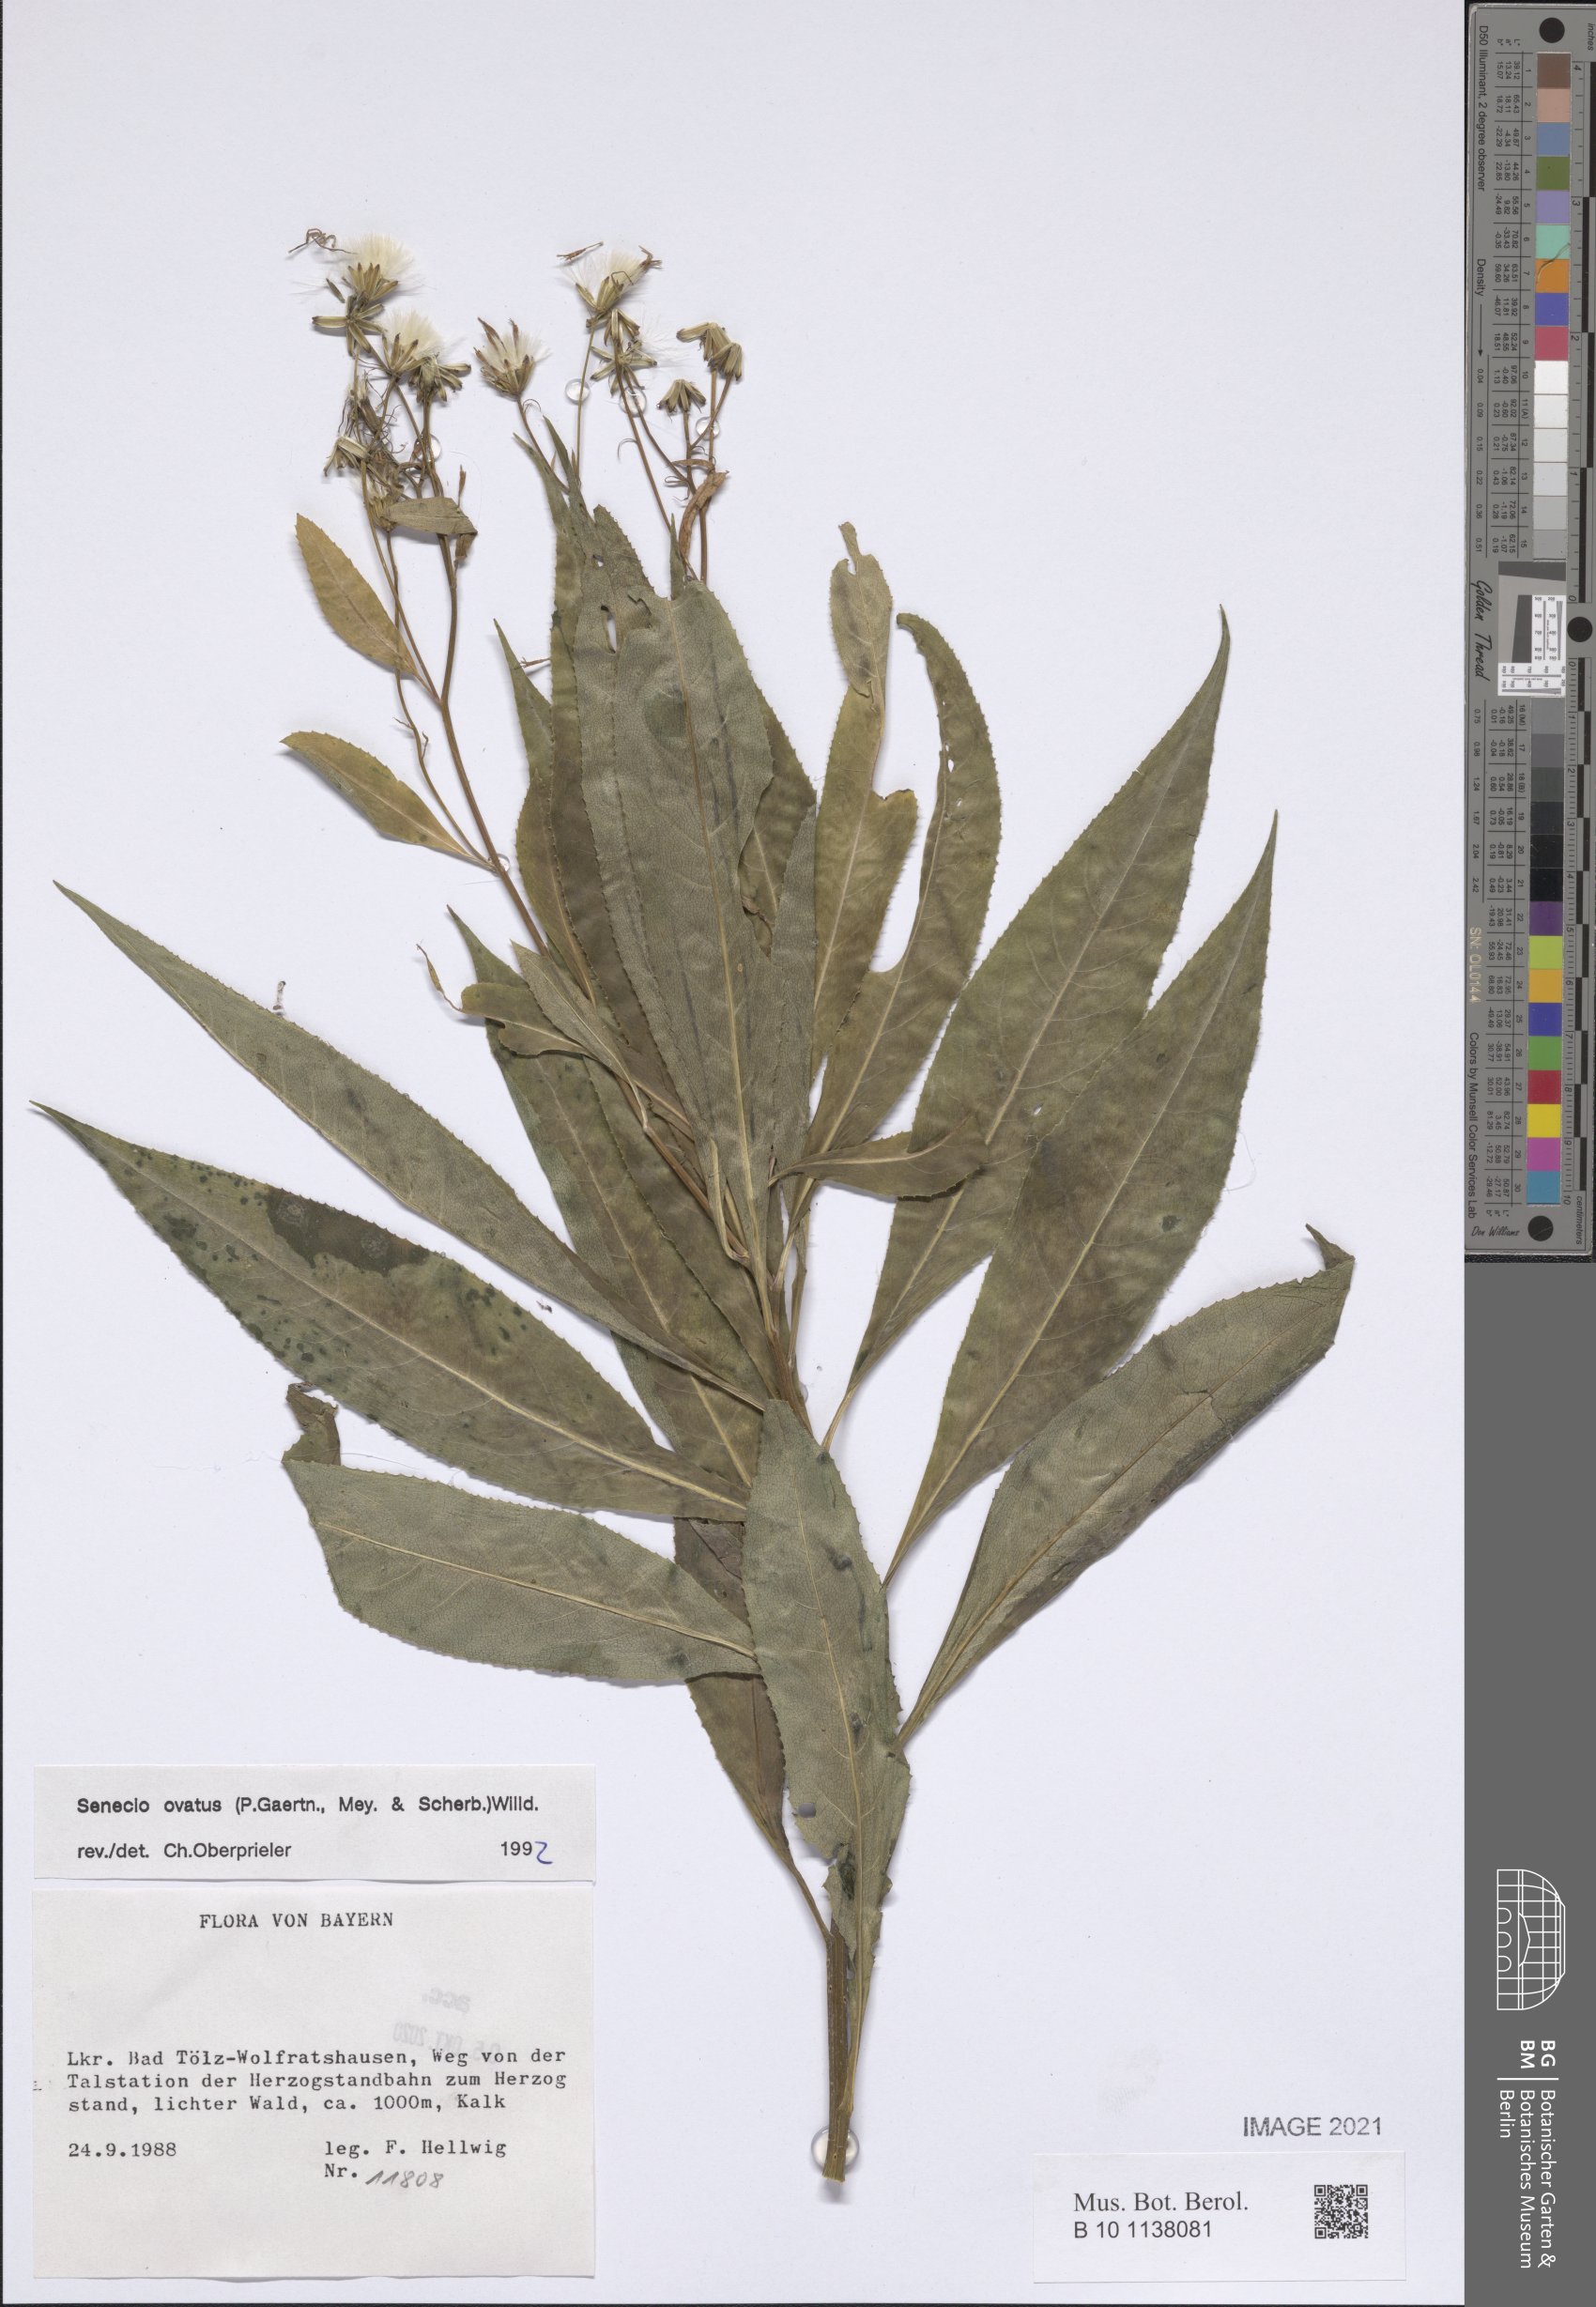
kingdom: Plantae
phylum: Tracheophyta
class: Magnoliopsida
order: Asterales
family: Asteraceae
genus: Senecio
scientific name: Senecio ovatus
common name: Wood ragwort
